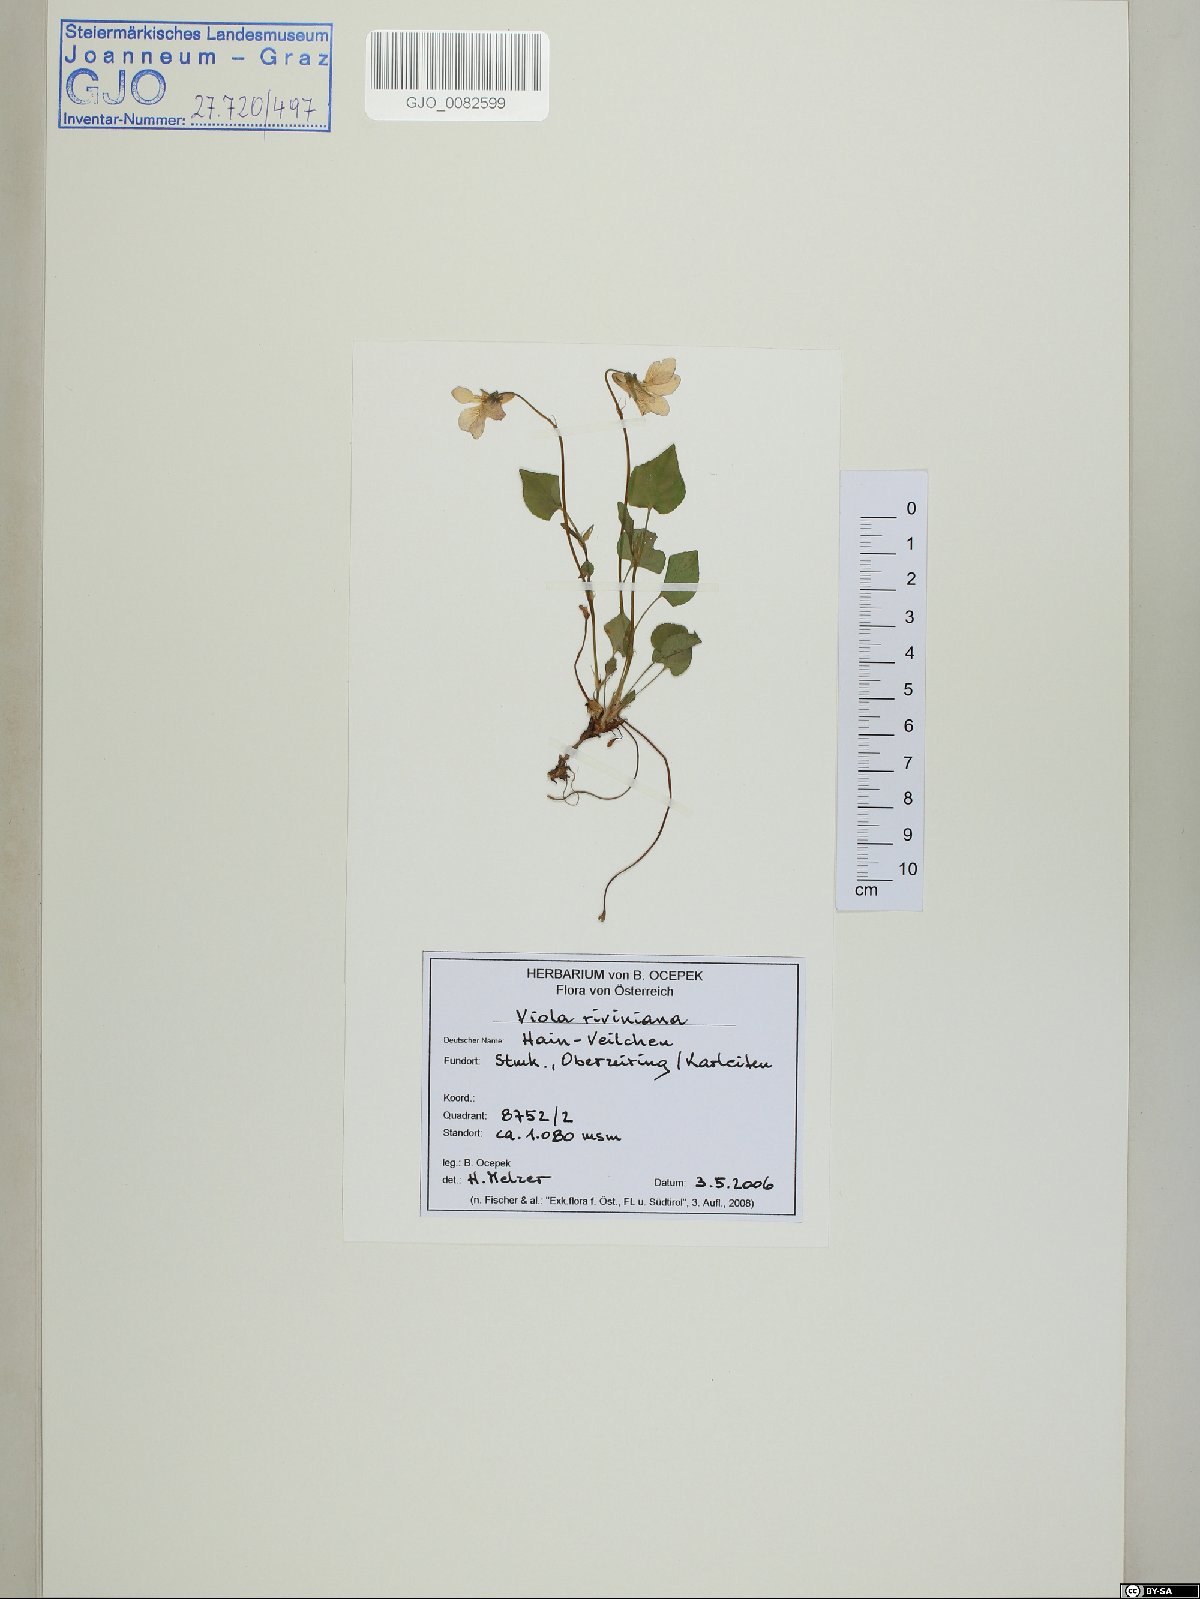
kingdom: Plantae
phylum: Tracheophyta
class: Magnoliopsida
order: Malpighiales
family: Violaceae
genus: Viola
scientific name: Viola riviniana
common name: Common dog-violet
